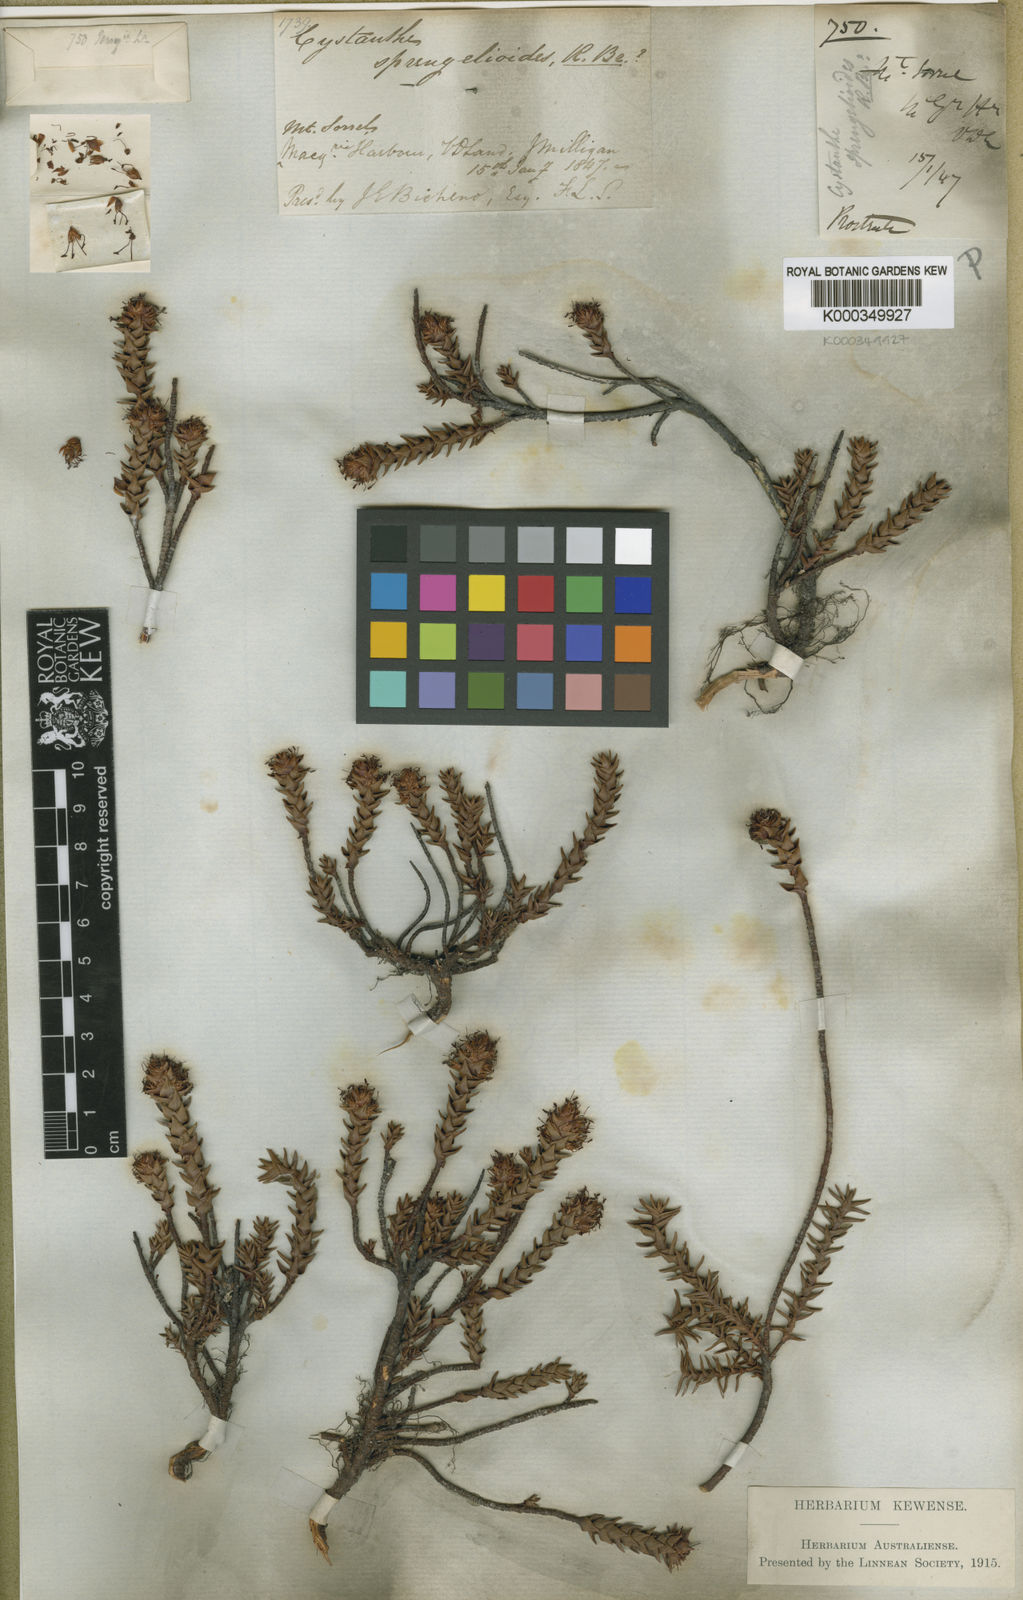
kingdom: Plantae
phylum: Tracheophyta
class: Magnoliopsida
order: Ericales
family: Ericaceae
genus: Dracophyllum
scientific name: Dracophyllum sprengelioides
